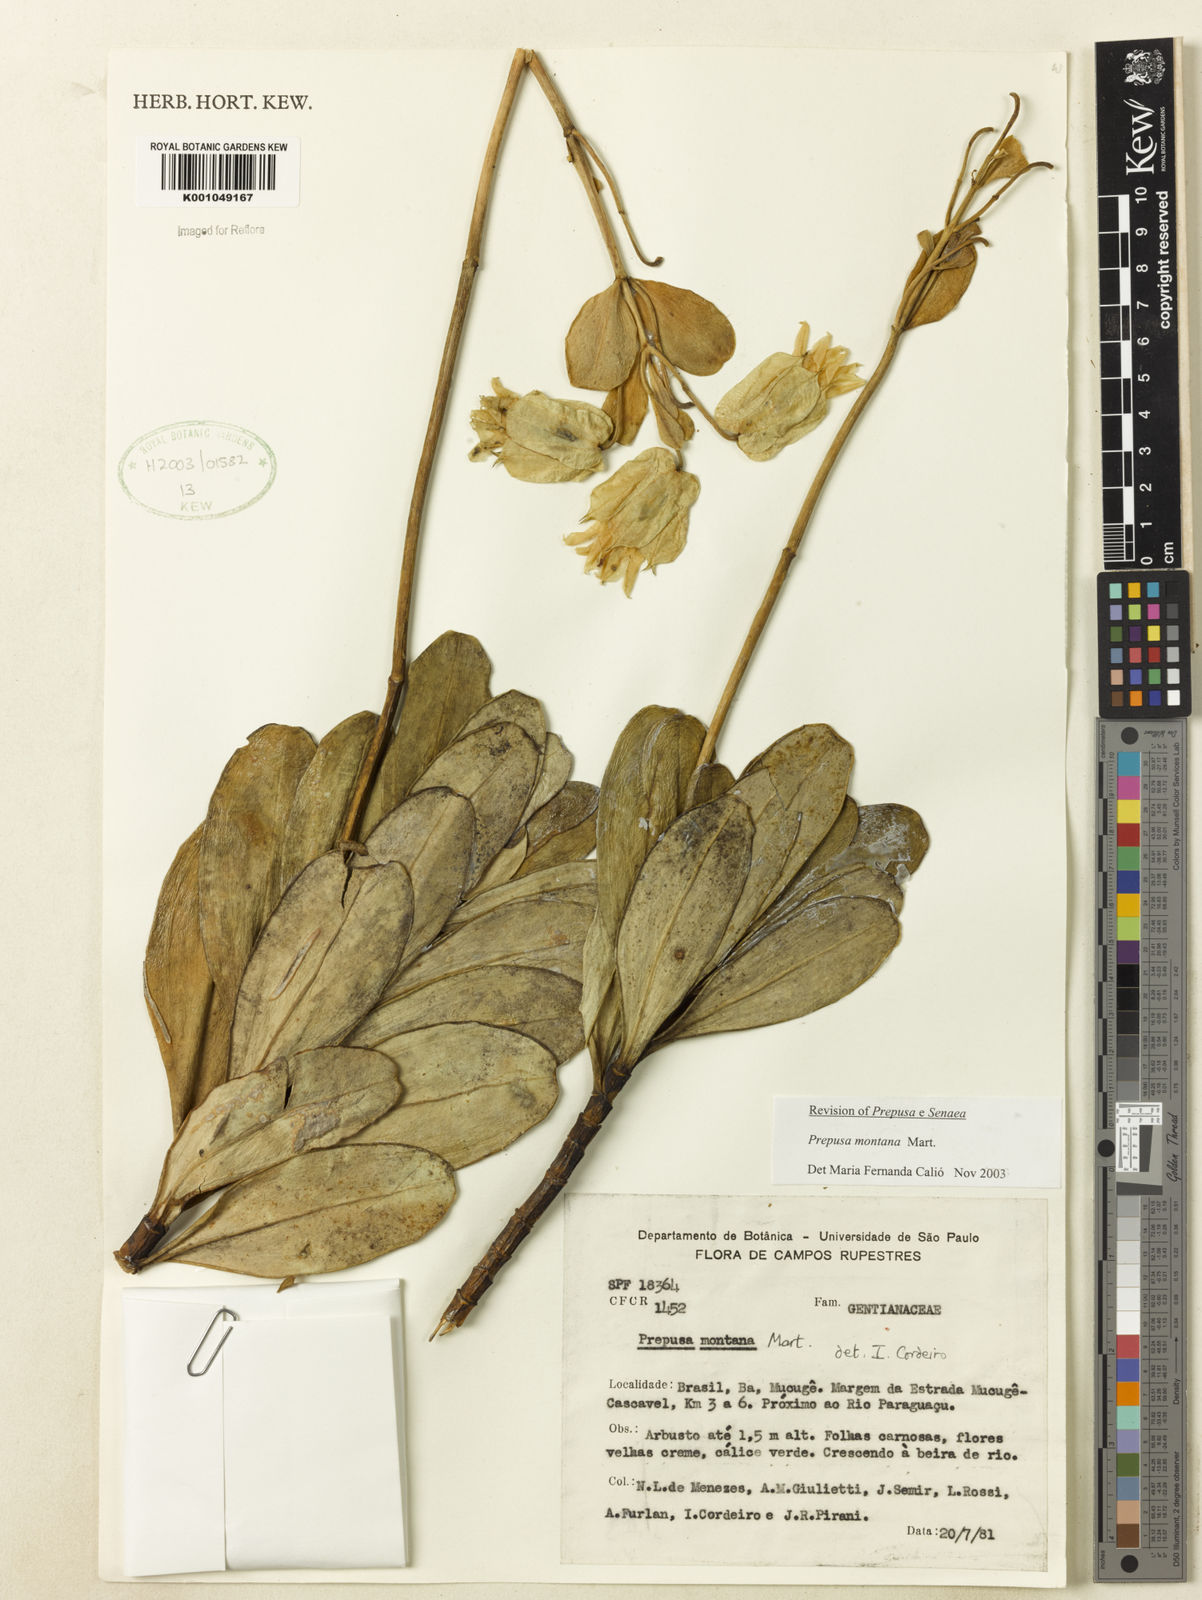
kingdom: Plantae
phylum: Tracheophyta
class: Magnoliopsida
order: Gentianales
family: Gentianaceae
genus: Prepusa
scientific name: Prepusa montana
